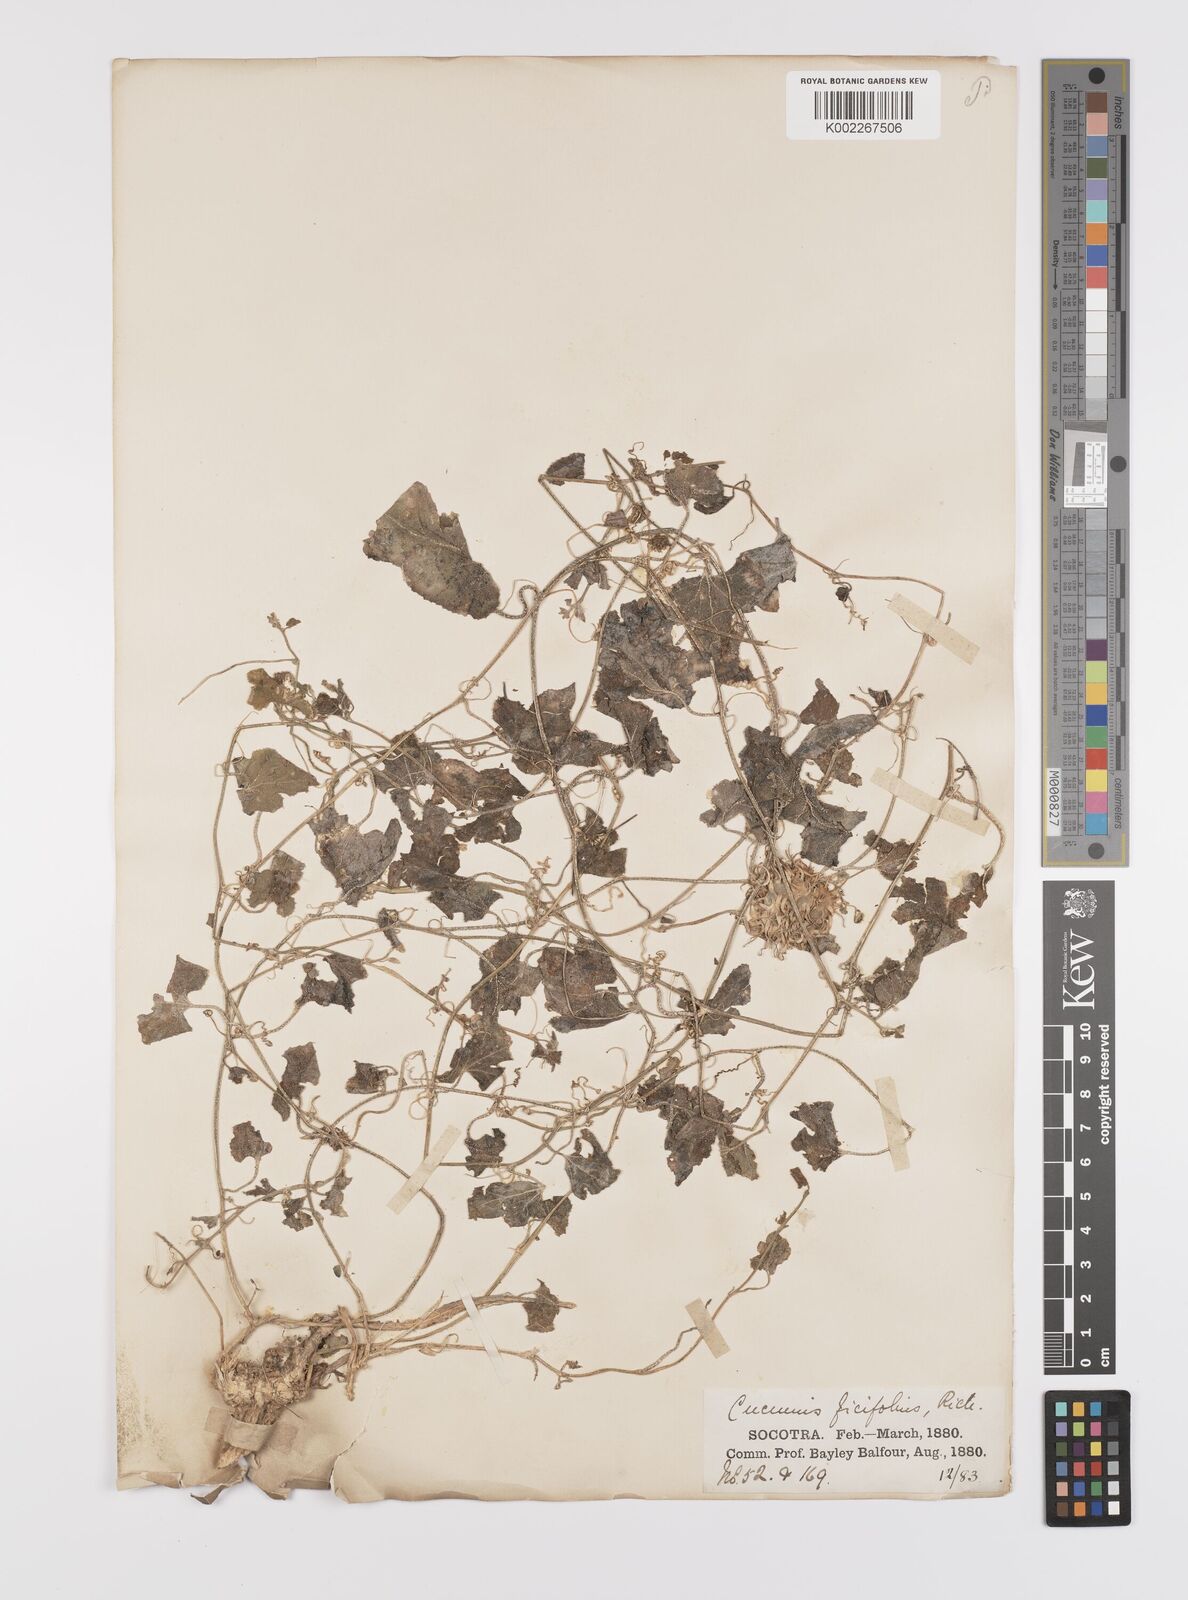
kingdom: Plantae
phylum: Tracheophyta
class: Magnoliopsida
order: Cucurbitales
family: Cucurbitaceae
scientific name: Cucurbitaceae
